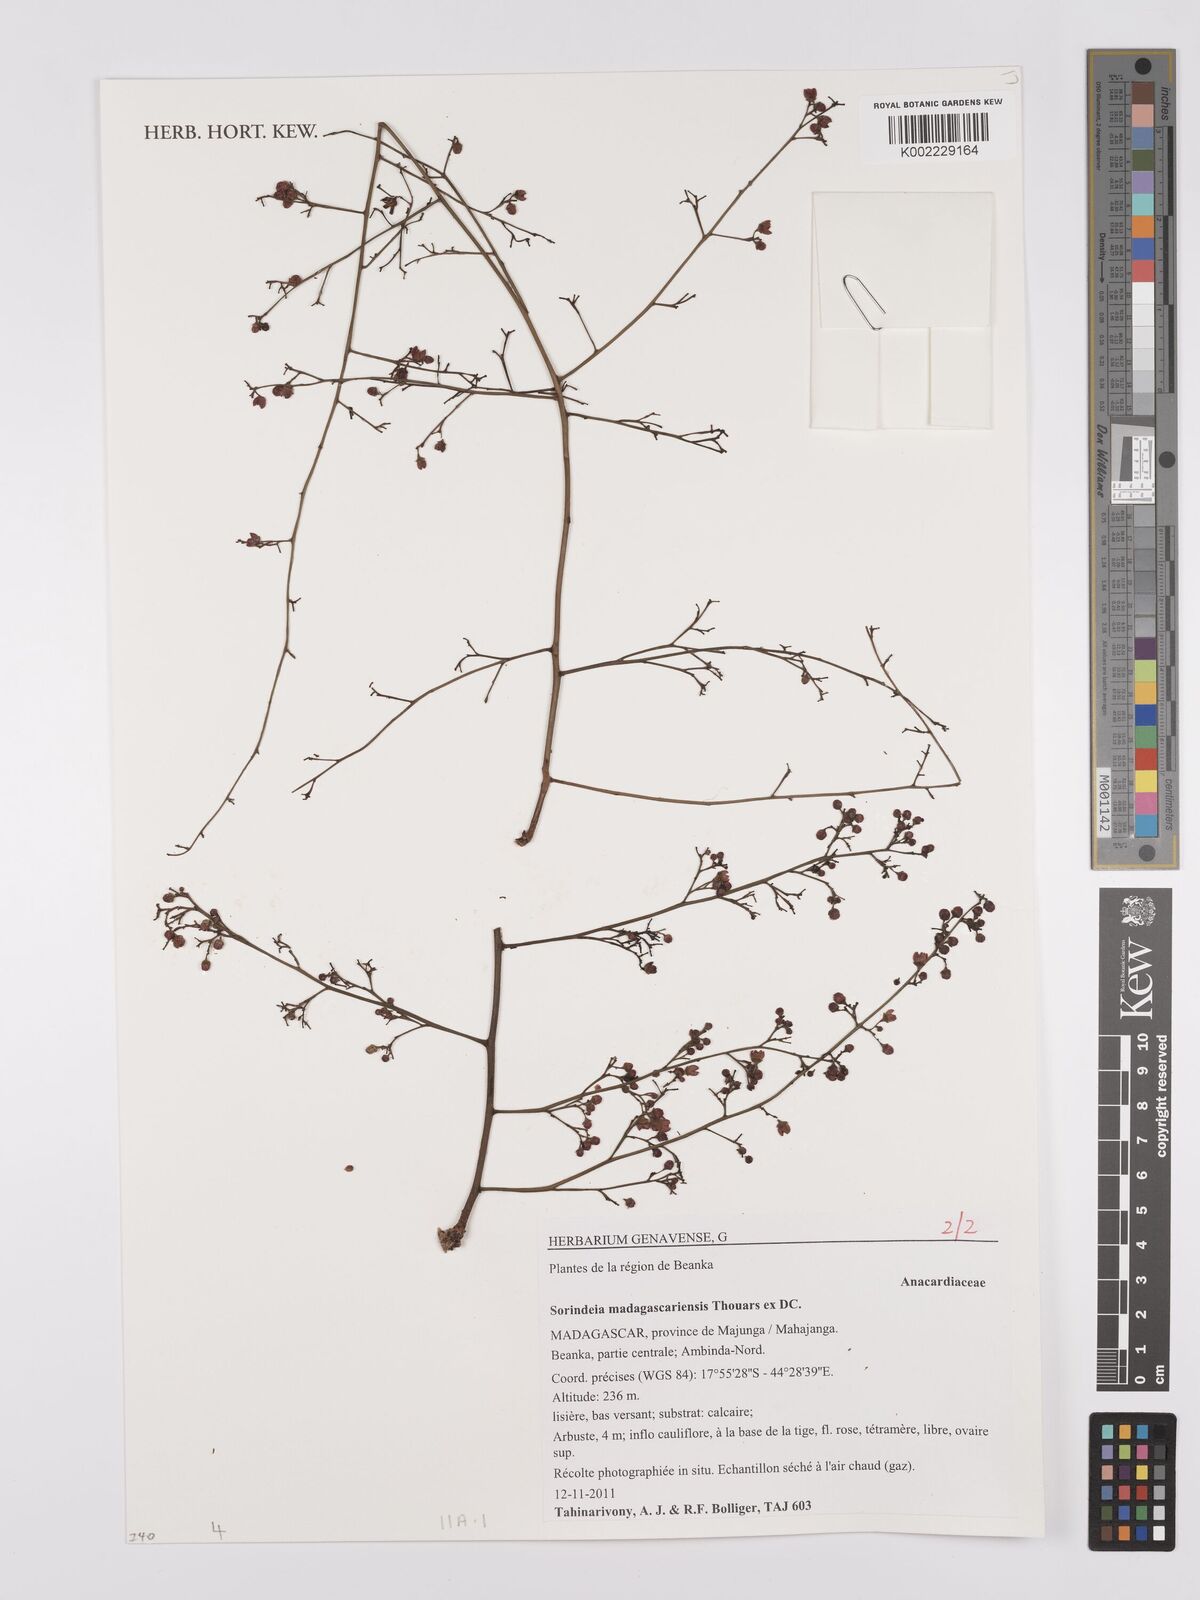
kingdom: Plantae
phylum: Tracheophyta
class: Magnoliopsida
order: Sapindales
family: Anacardiaceae
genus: Sorindeia
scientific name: Sorindeia madagascariensis
